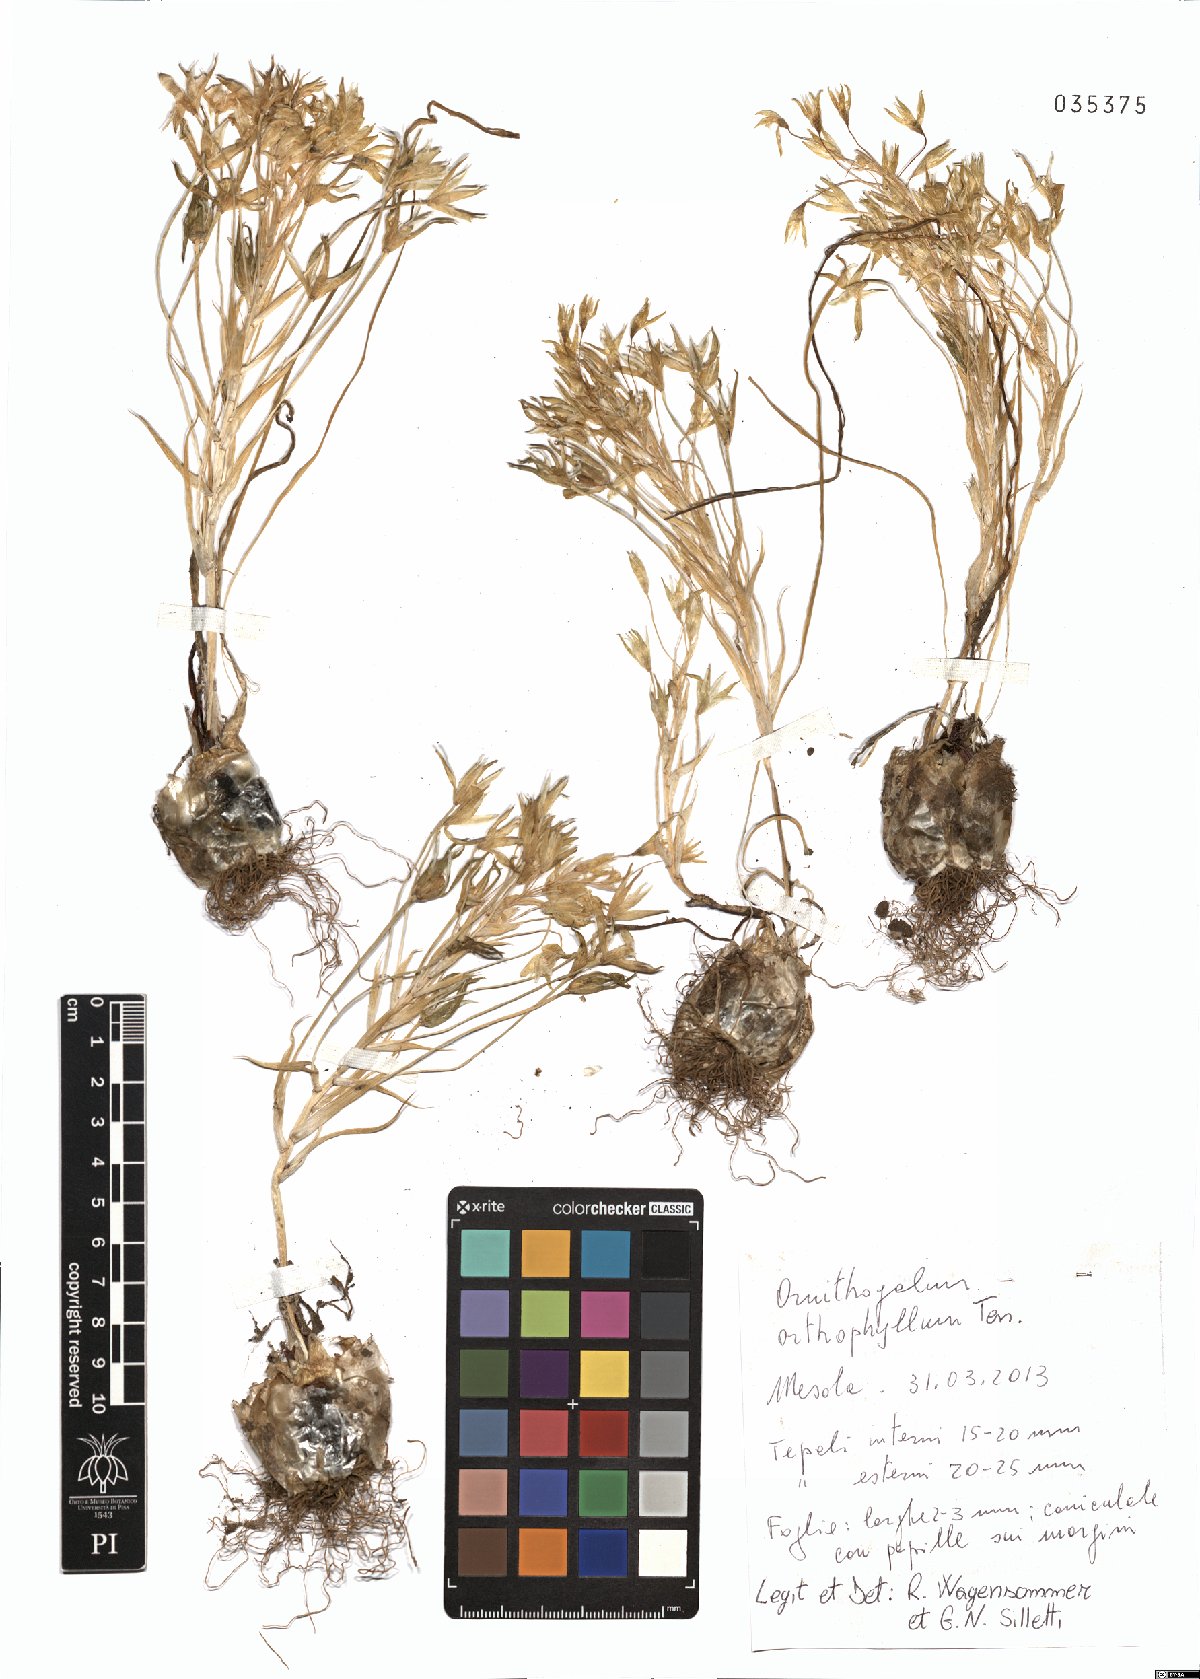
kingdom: Plantae
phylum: Tracheophyta
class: Liliopsida
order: Asparagales
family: Asparagaceae
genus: Ornithogalum
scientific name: Ornithogalum orthophyllum
